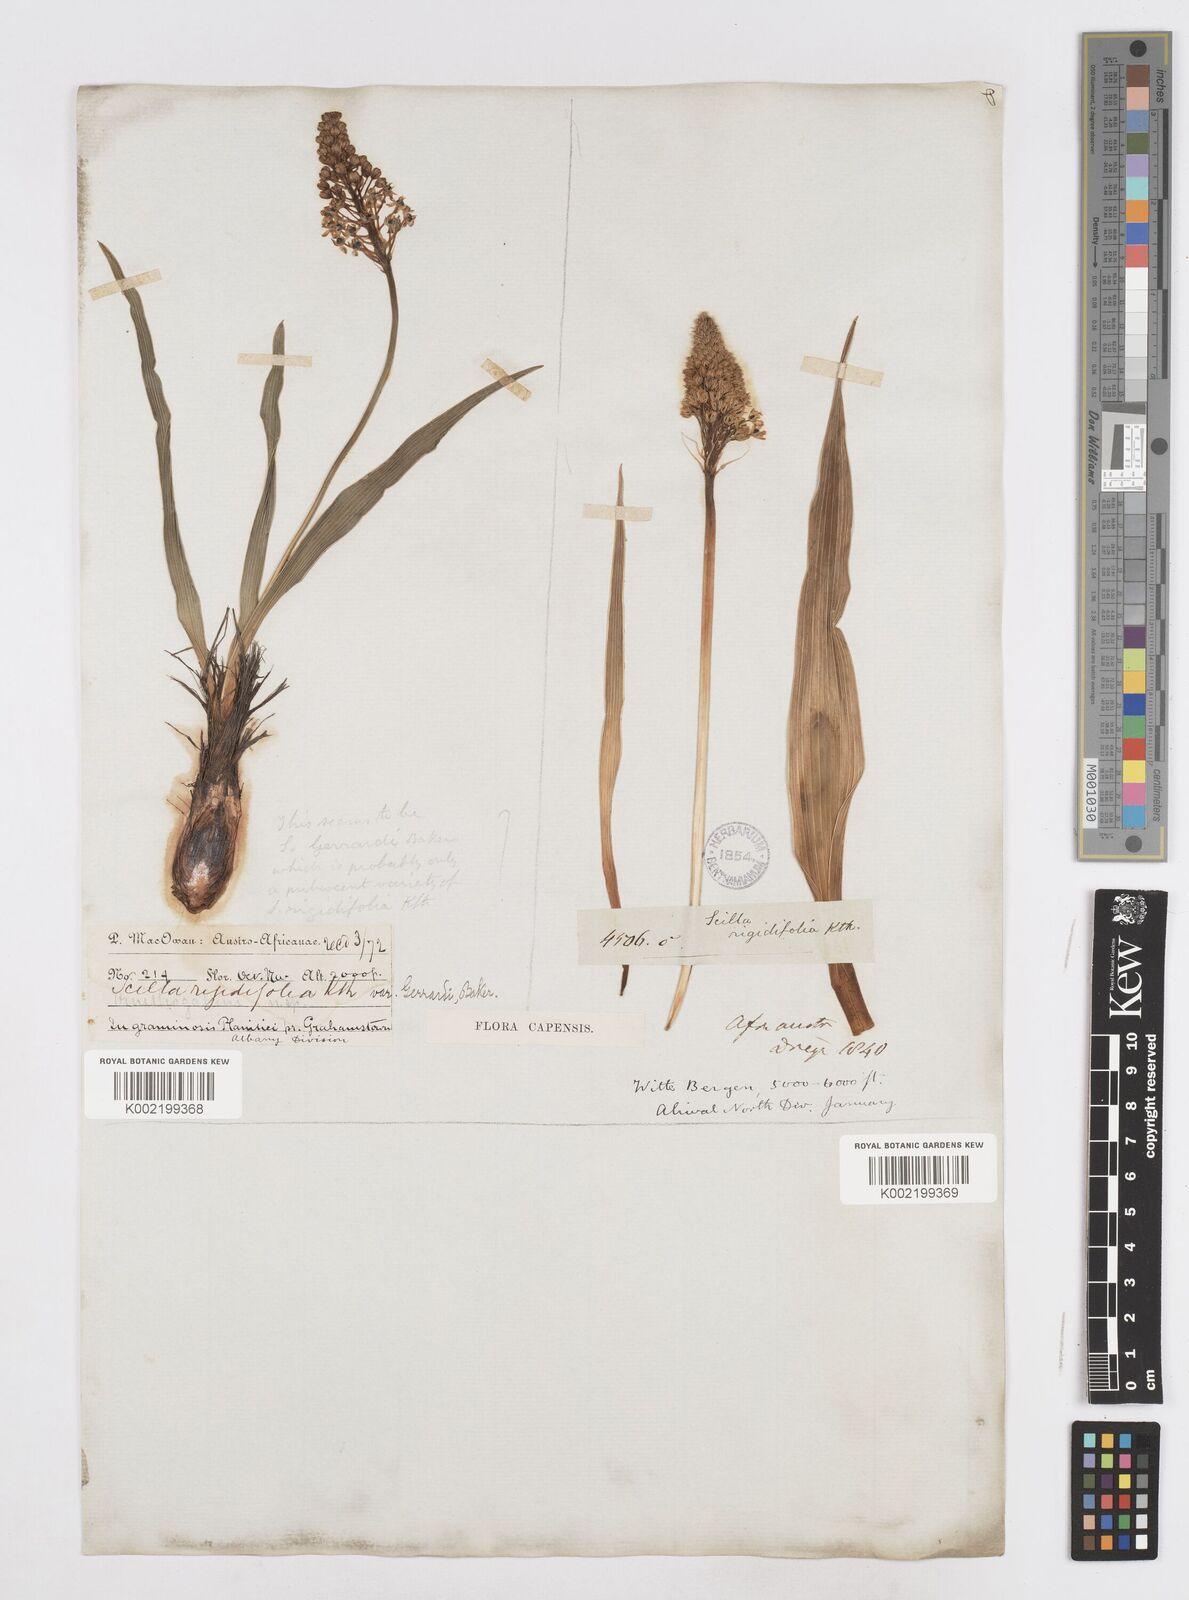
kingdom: Plantae
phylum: Tracheophyta
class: Liliopsida
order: Asparagales
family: Asparagaceae
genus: Schizocarphus
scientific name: Schizocarphus nervosus
